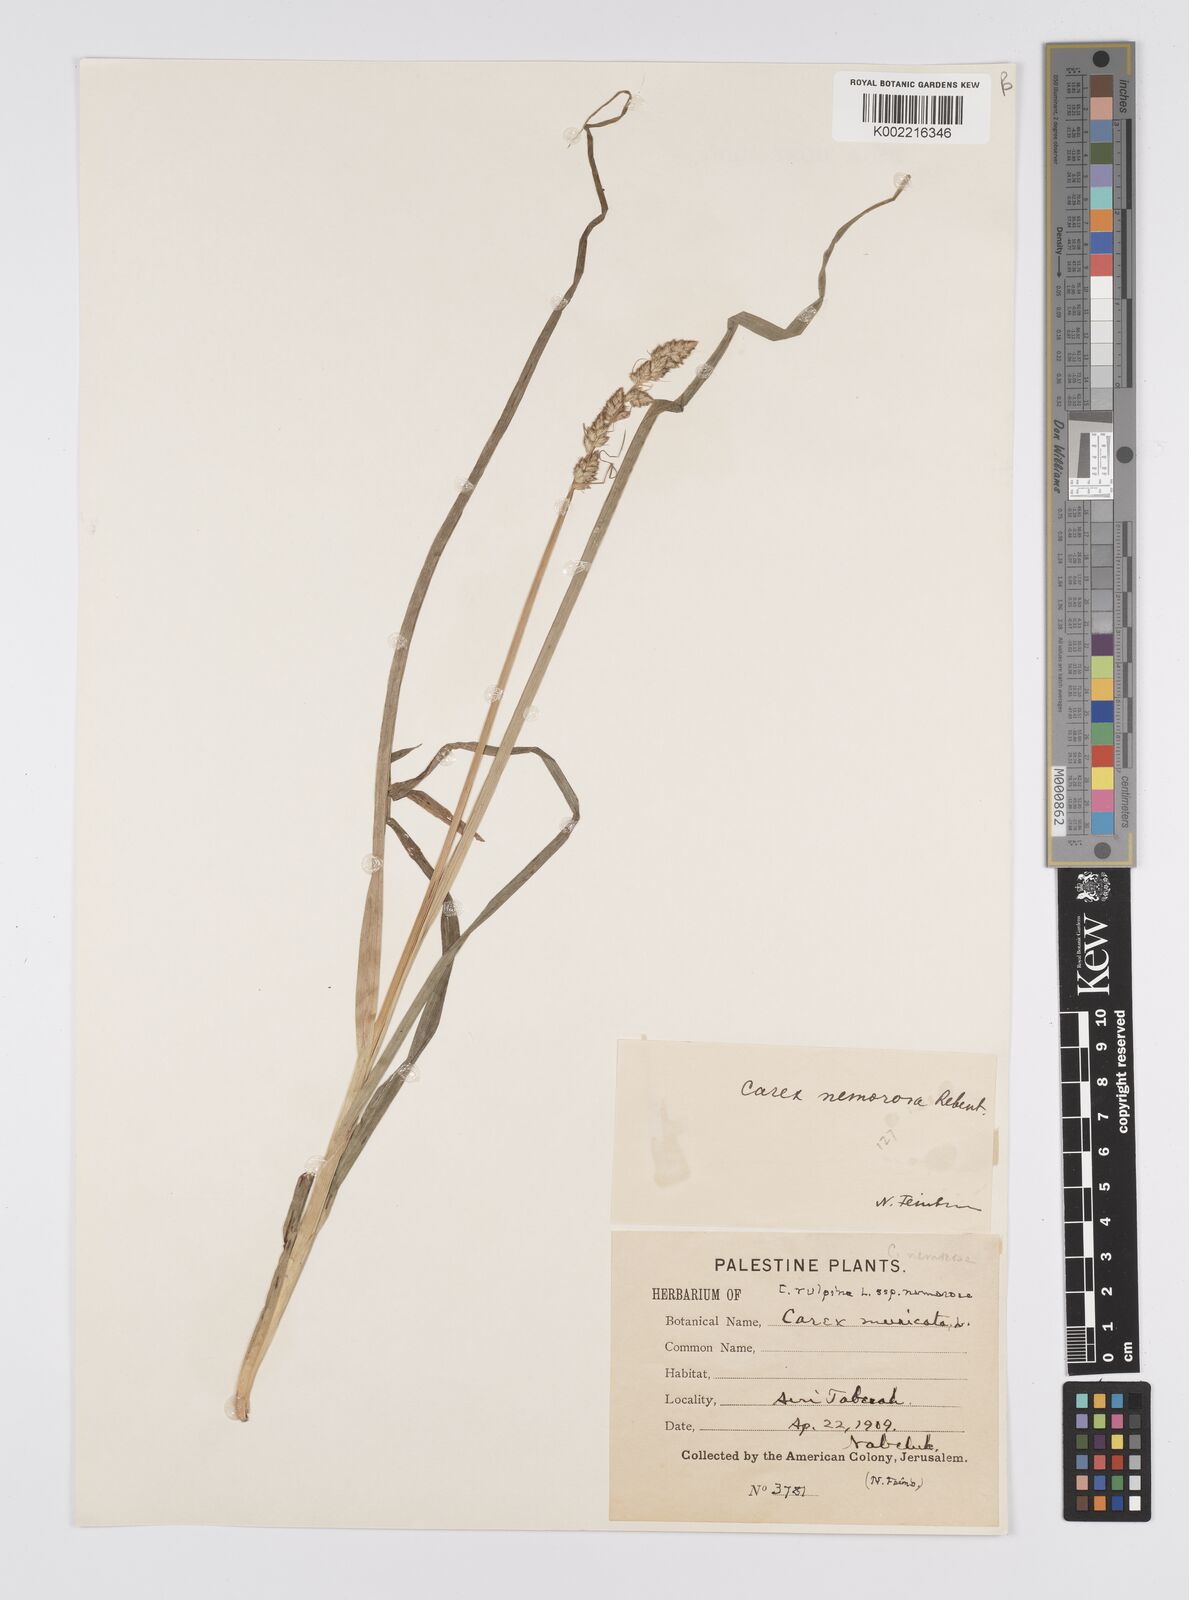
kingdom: Plantae
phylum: Tracheophyta
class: Liliopsida
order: Poales
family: Cyperaceae
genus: Carex
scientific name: Carex otrubae
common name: False fox-sedge
